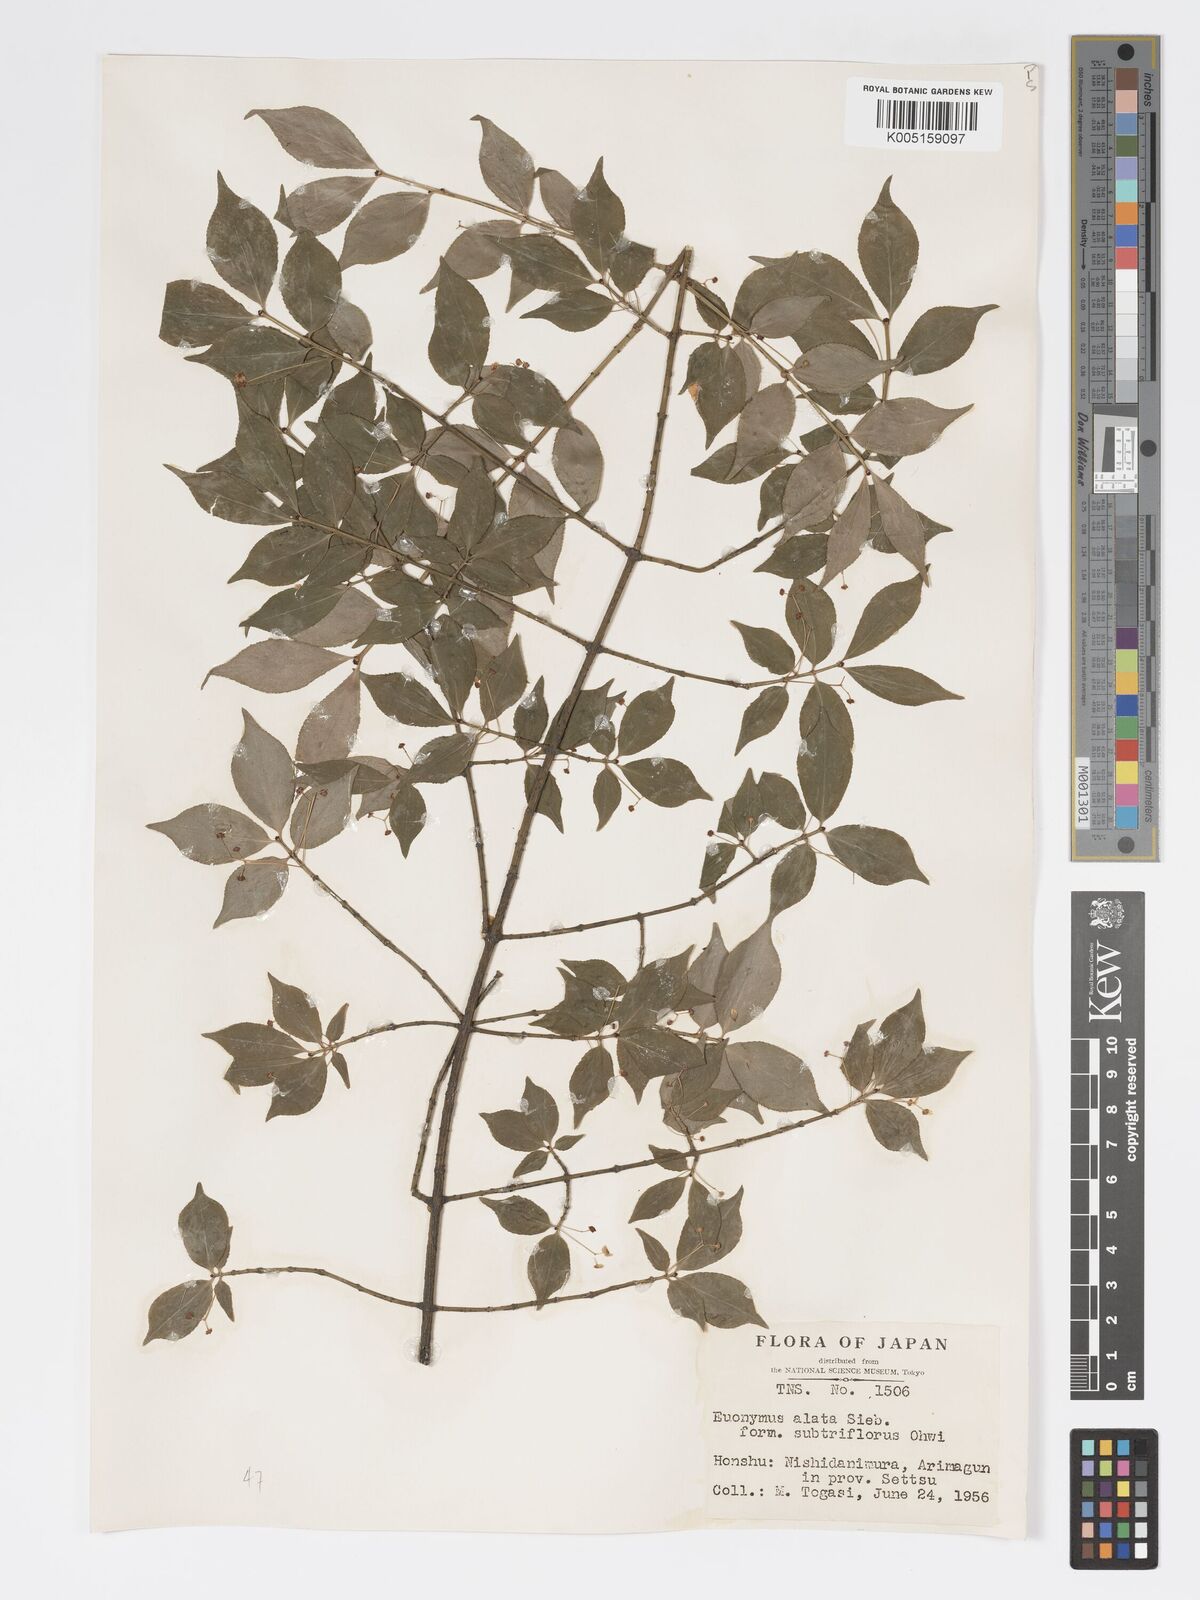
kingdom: Plantae
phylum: Tracheophyta
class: Magnoliopsida
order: Celastrales
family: Celastraceae
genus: Euonymus
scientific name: Euonymus
